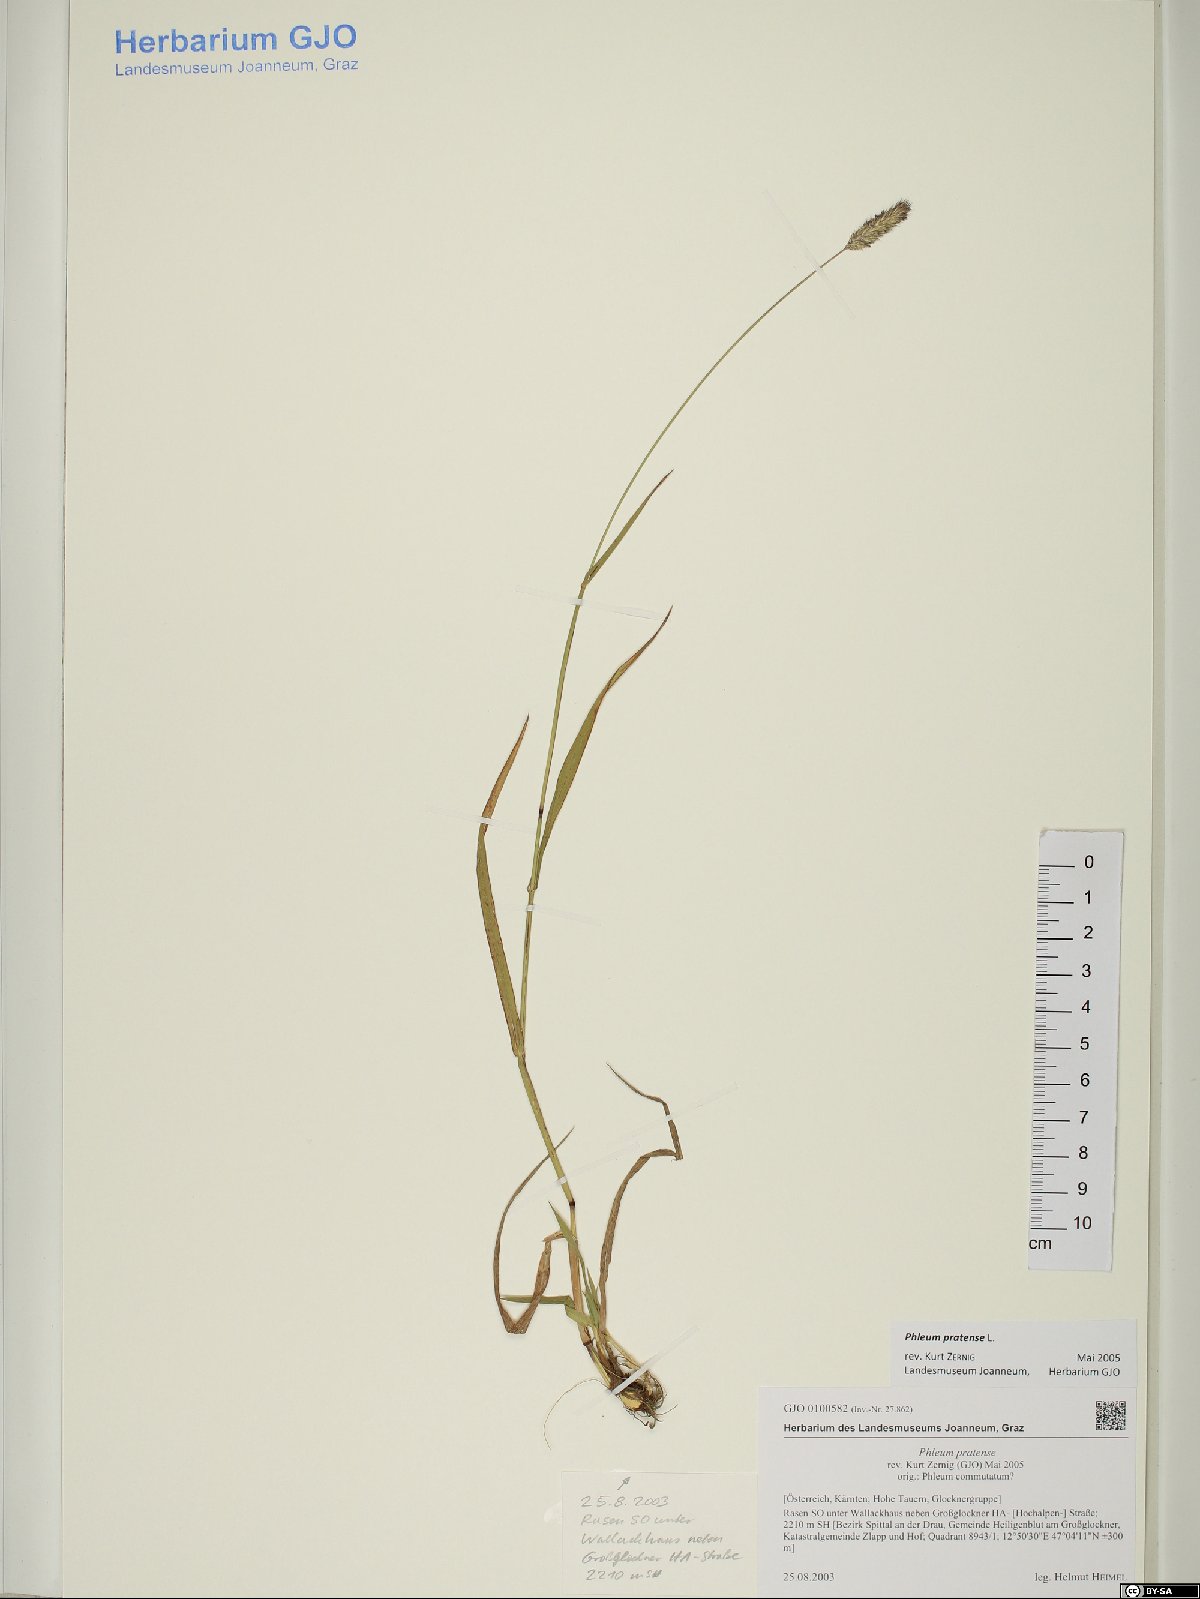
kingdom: Plantae
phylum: Tracheophyta
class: Liliopsida
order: Poales
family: Poaceae
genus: Phleum
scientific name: Phleum pratense
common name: Timothy grass
